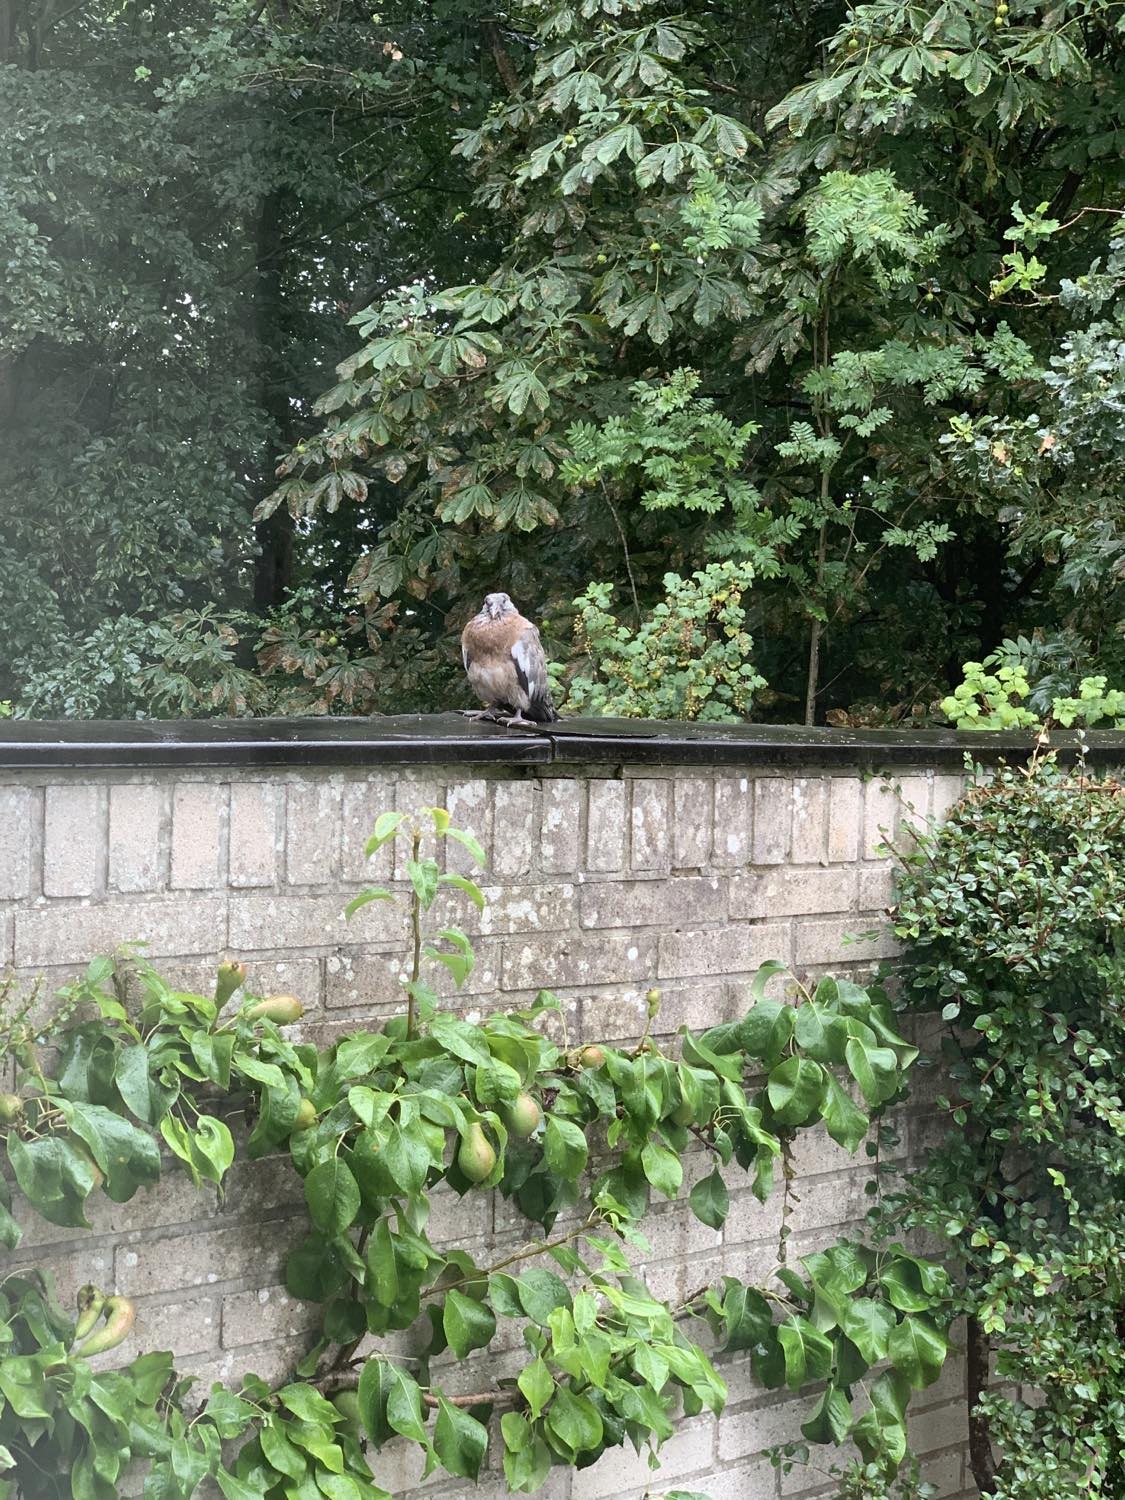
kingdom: Animalia
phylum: Chordata
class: Aves
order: Columbiformes
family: Columbidae
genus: Columba
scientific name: Columba palumbus
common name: Ringdue
